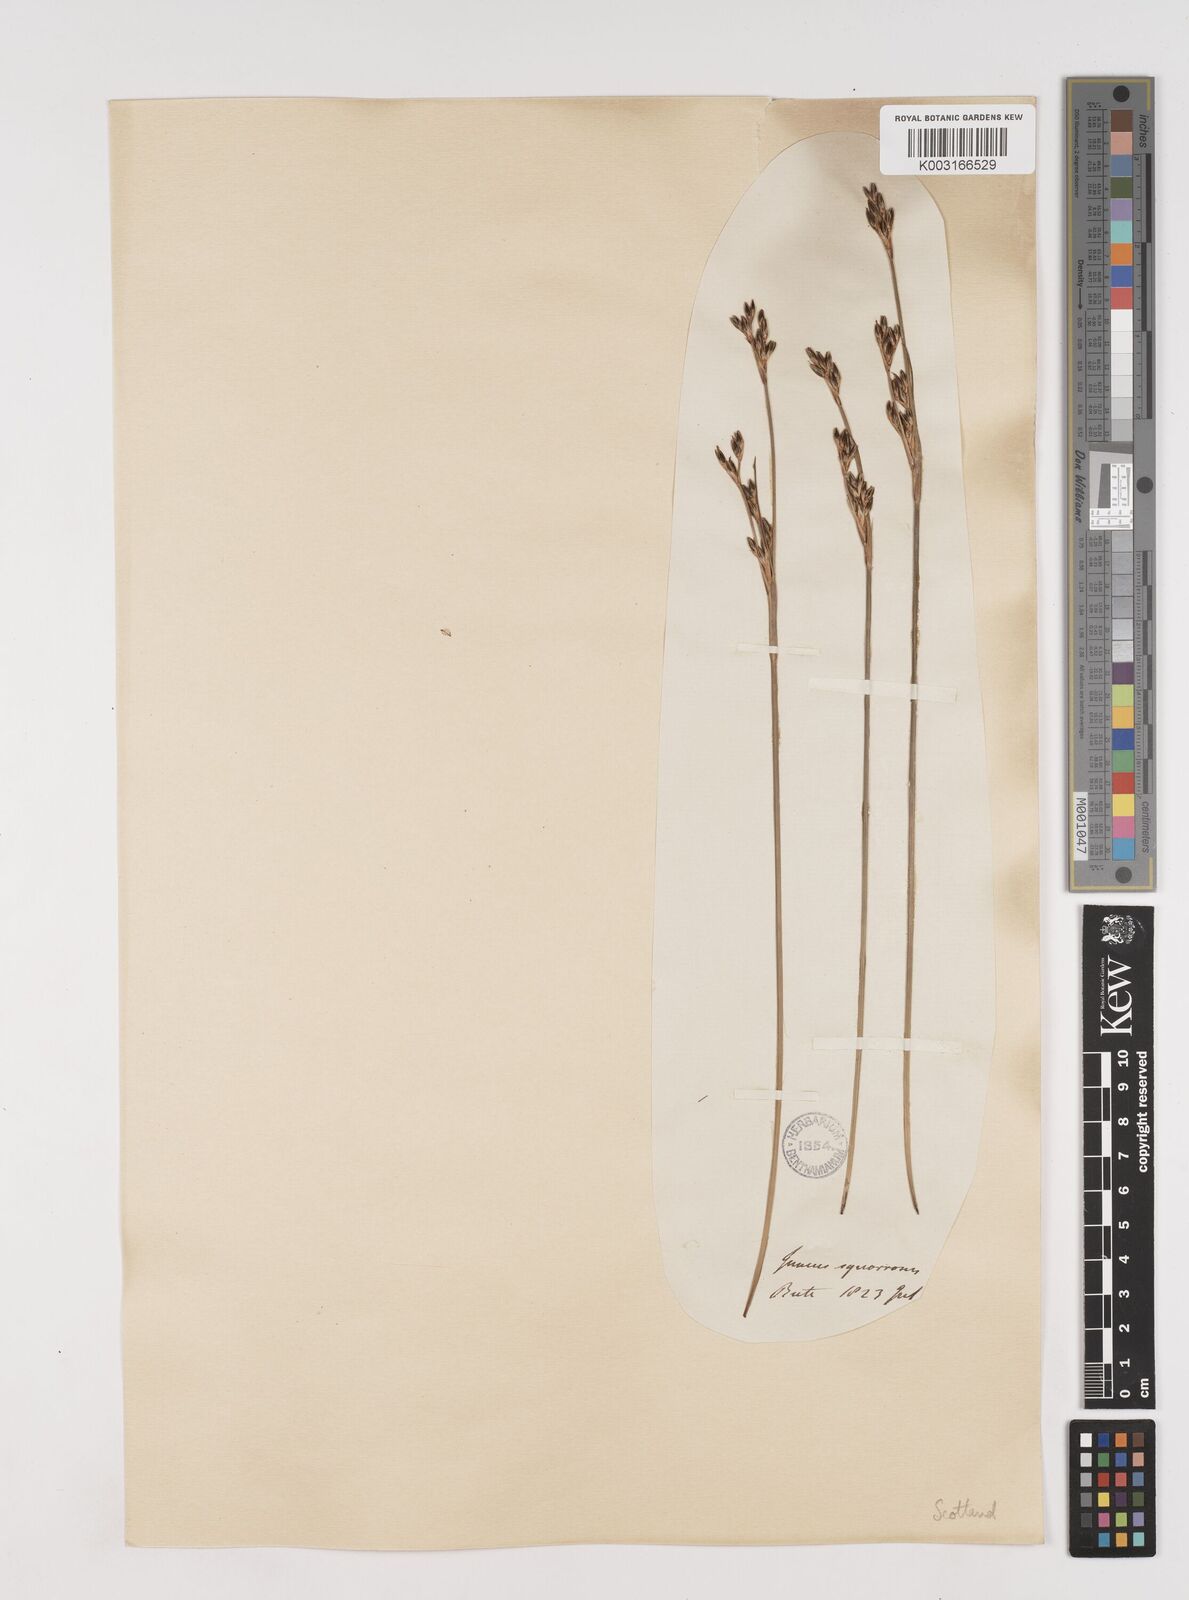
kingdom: Plantae
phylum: Tracheophyta
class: Liliopsida
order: Poales
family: Juncaceae
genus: Juncus
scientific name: Juncus squarrosus
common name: Heath rush
